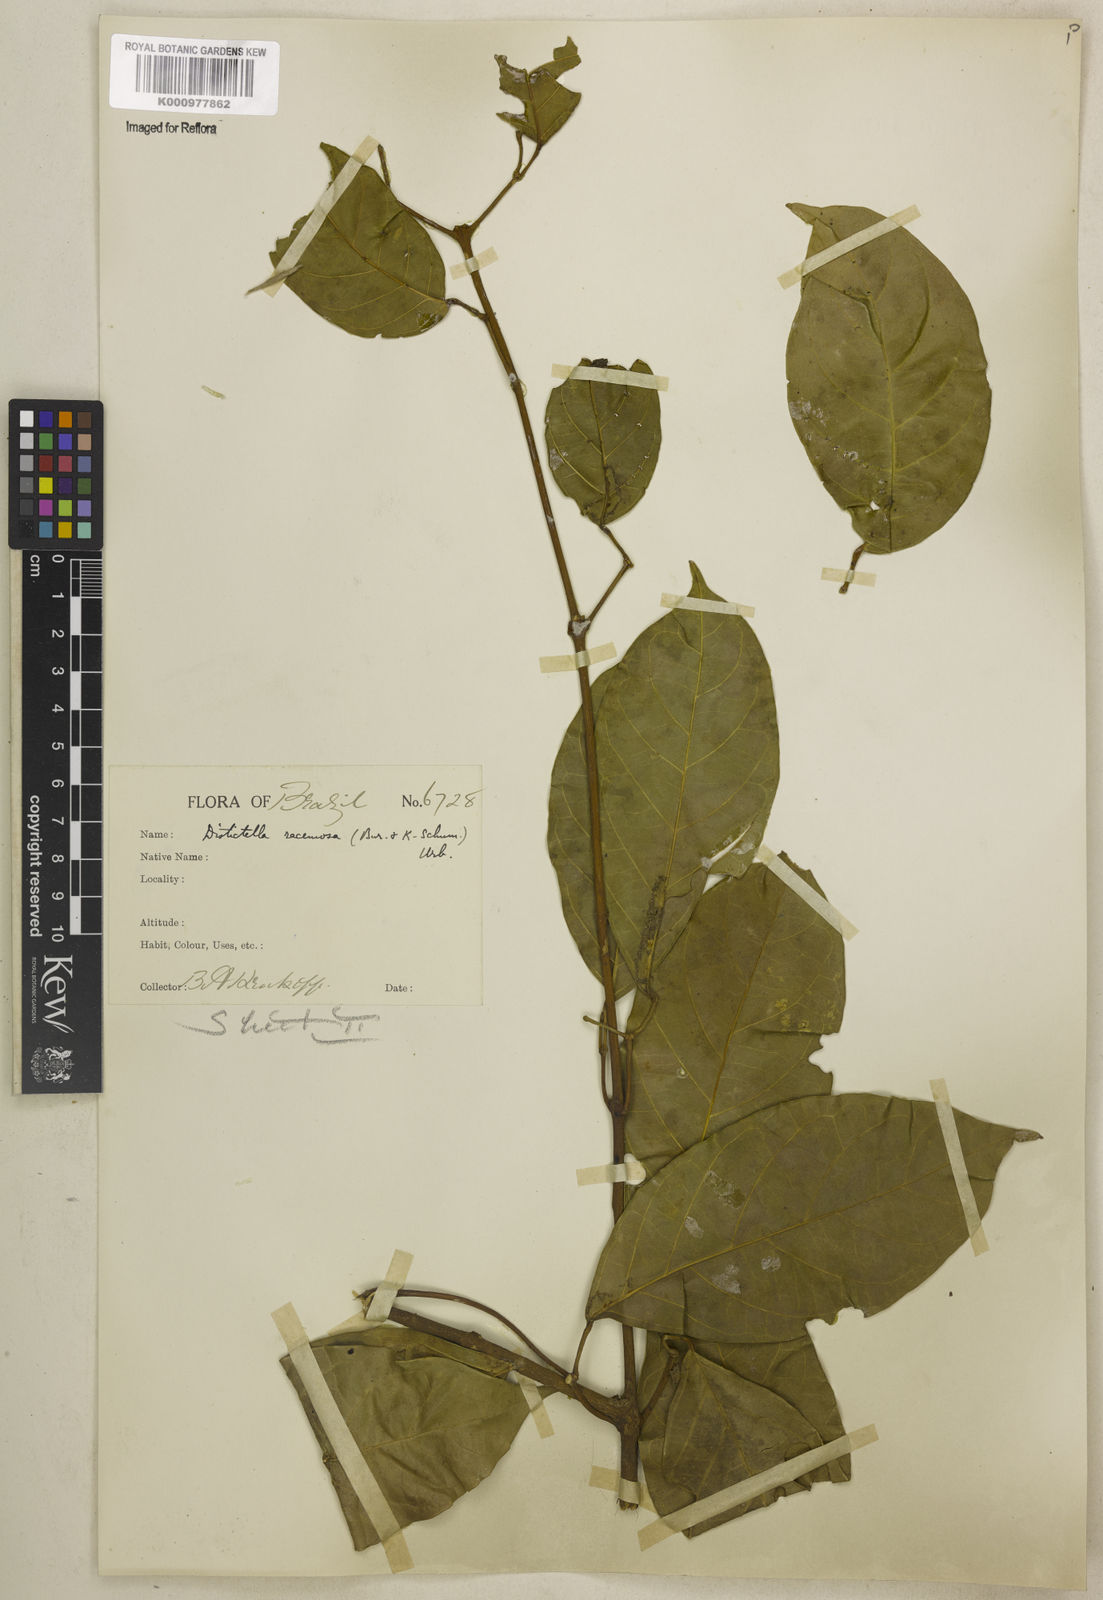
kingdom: Plantae
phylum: Tracheophyta
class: Magnoliopsida
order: Lamiales
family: Bignoniaceae
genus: Amphilophium
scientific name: Amphilophium racemosum
